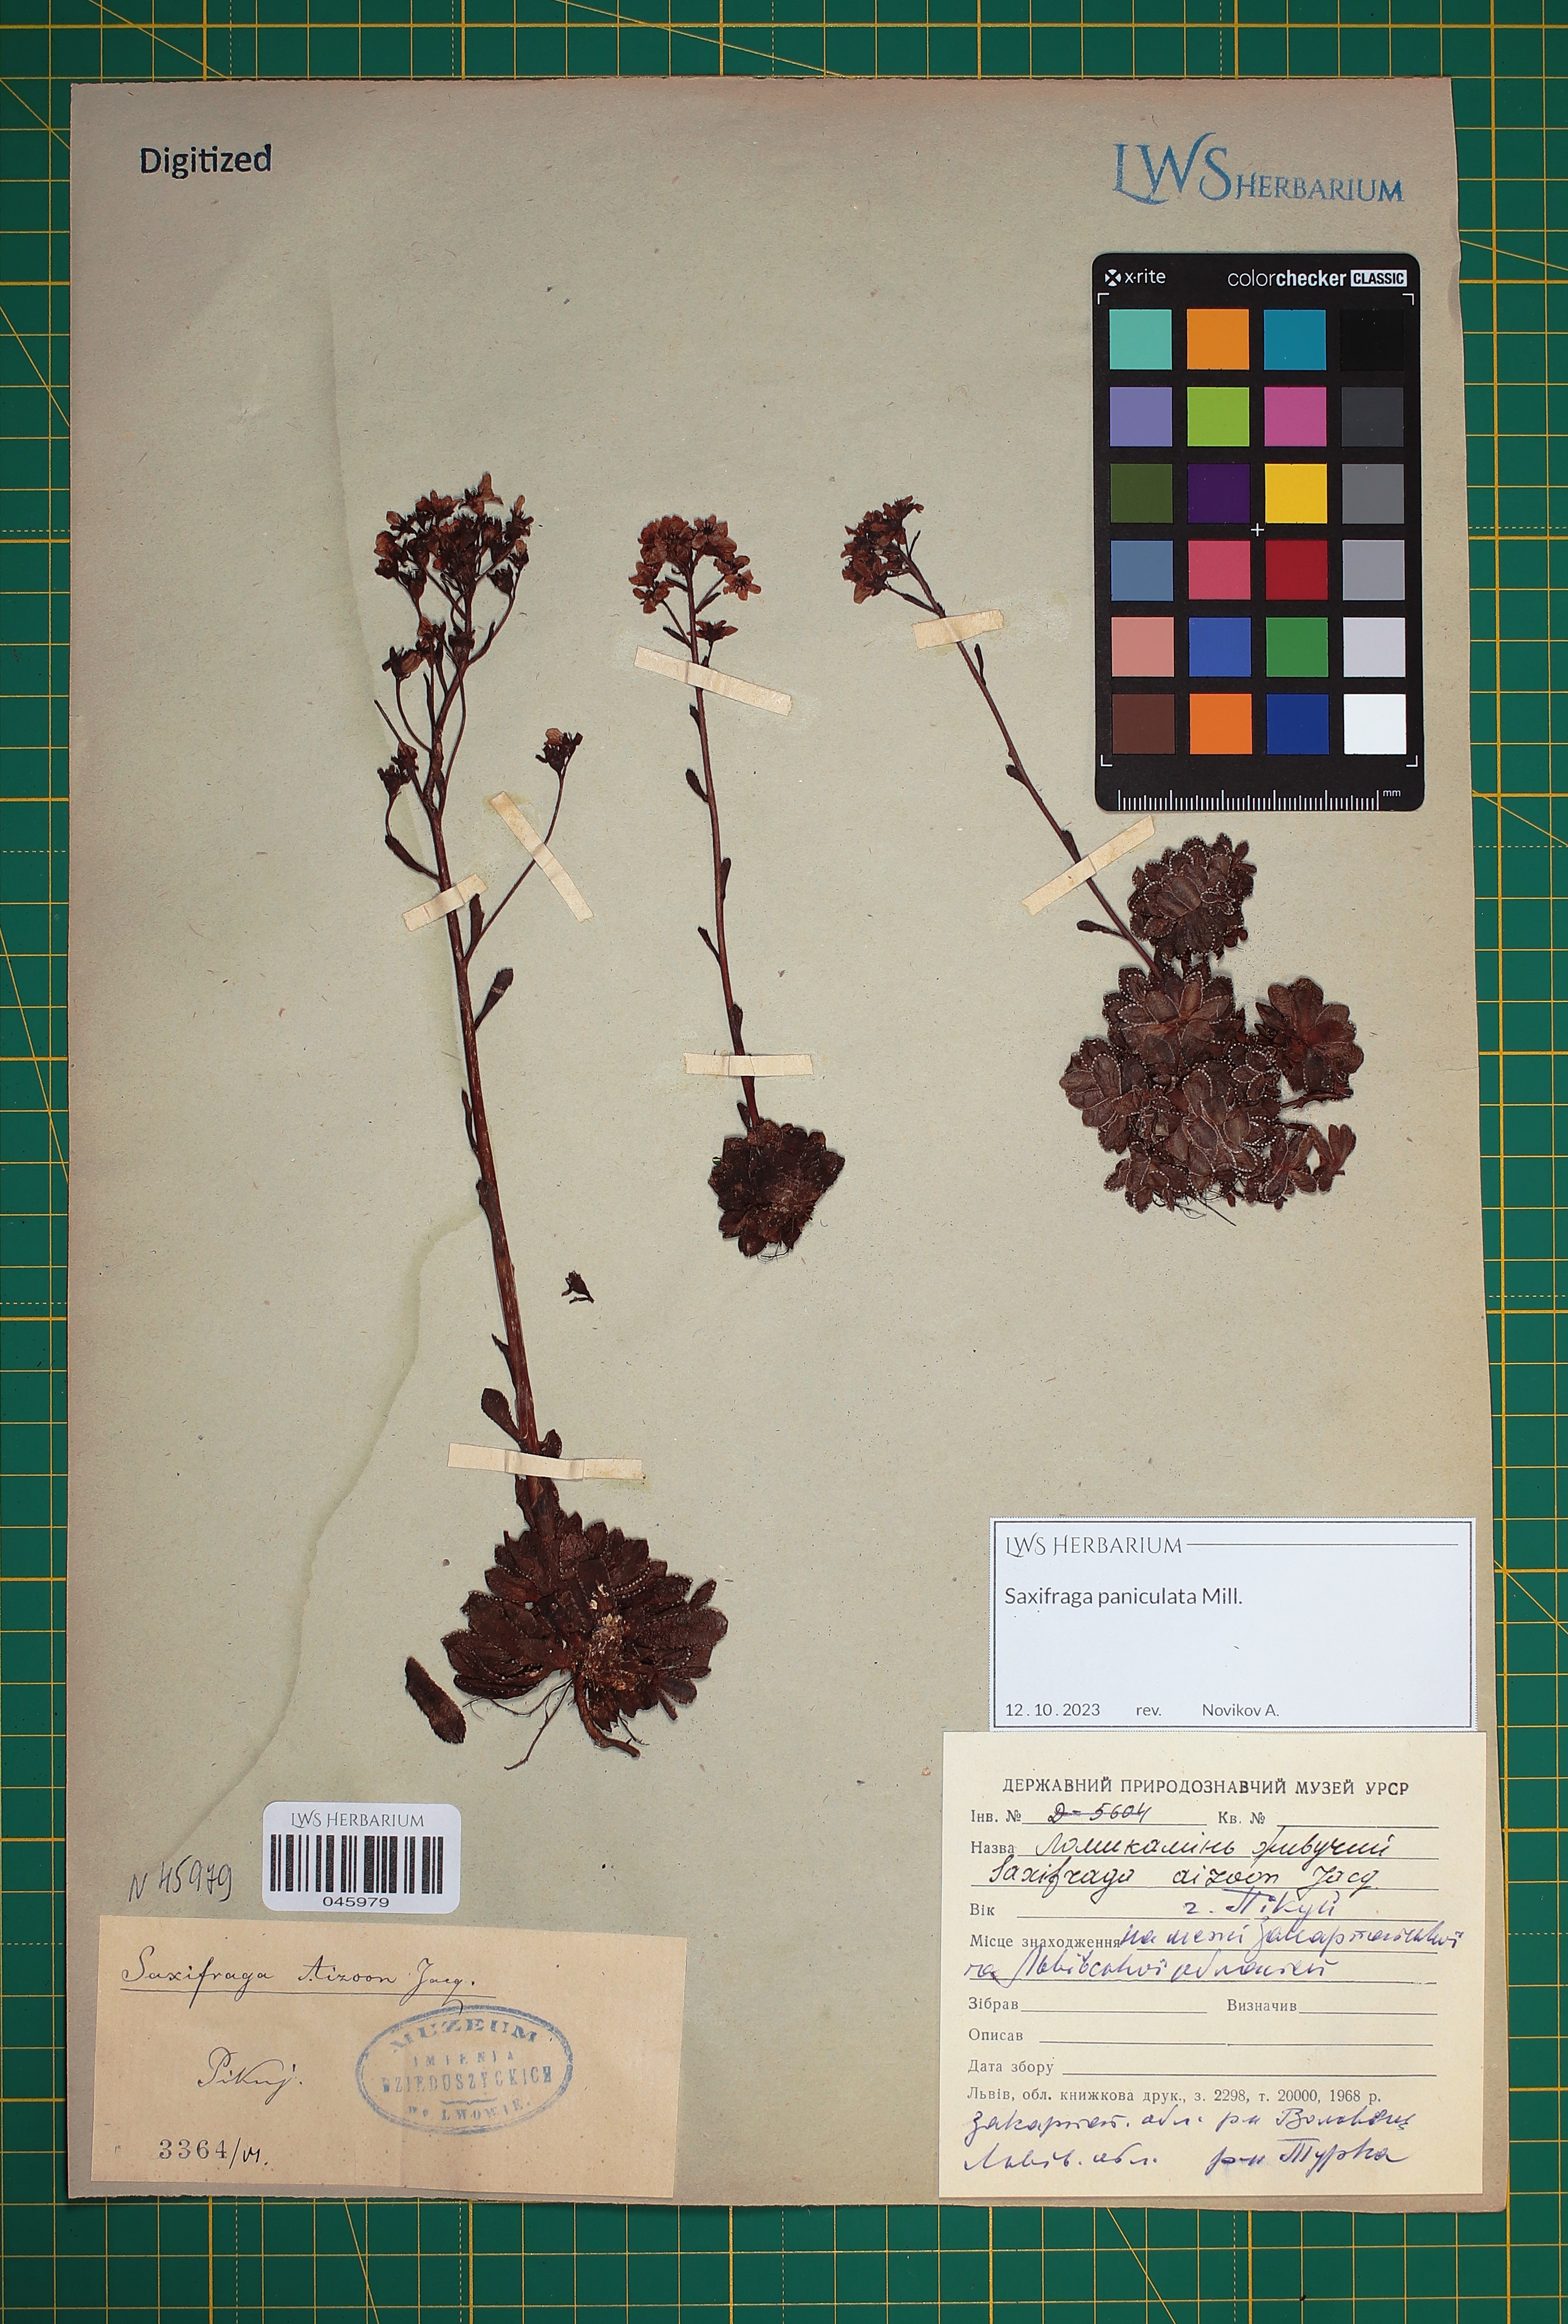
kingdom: Plantae
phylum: Tracheophyta
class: Magnoliopsida
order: Saxifragales
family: Saxifragaceae
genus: Saxifraga
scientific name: Saxifraga paniculata
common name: Livelong saxifrage
